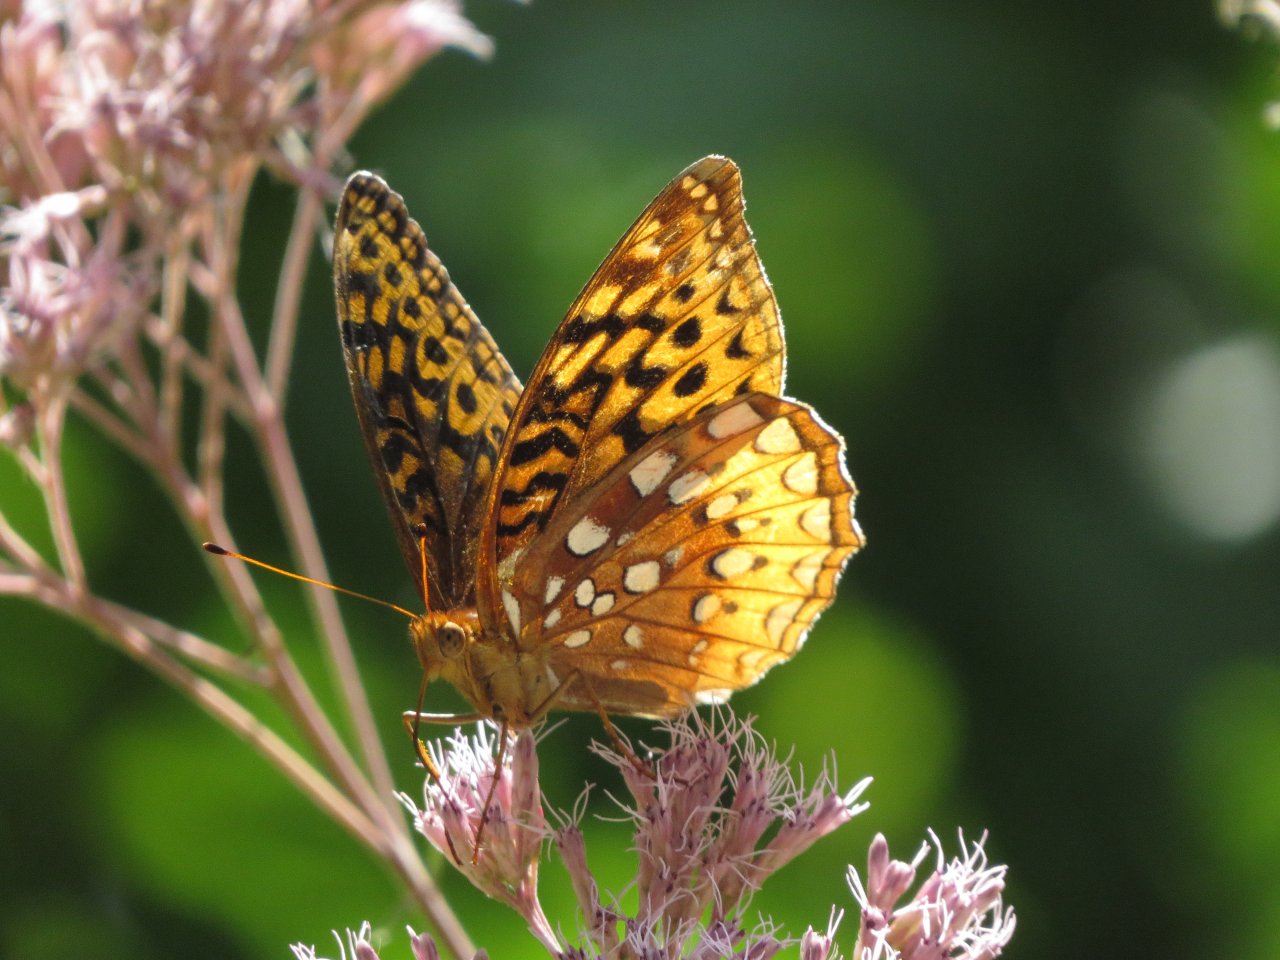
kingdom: Animalia
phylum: Arthropoda
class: Insecta
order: Lepidoptera
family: Nymphalidae
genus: Speyeria
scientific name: Speyeria cybele
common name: Great Spangled Fritillary
